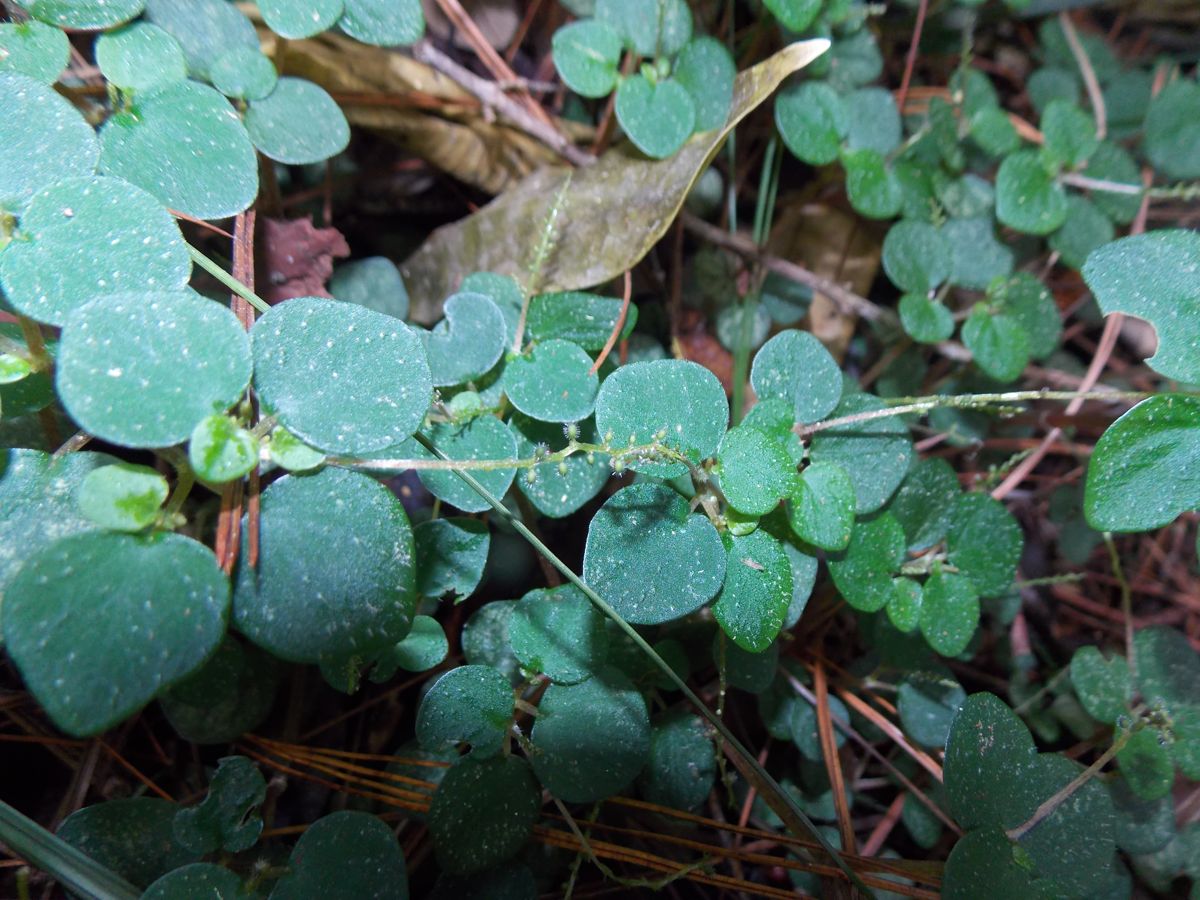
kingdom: Plantae
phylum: Tracheophyta
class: Magnoliopsida
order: Piperales
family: Piperaceae
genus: Peperomia
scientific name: Peperomia
